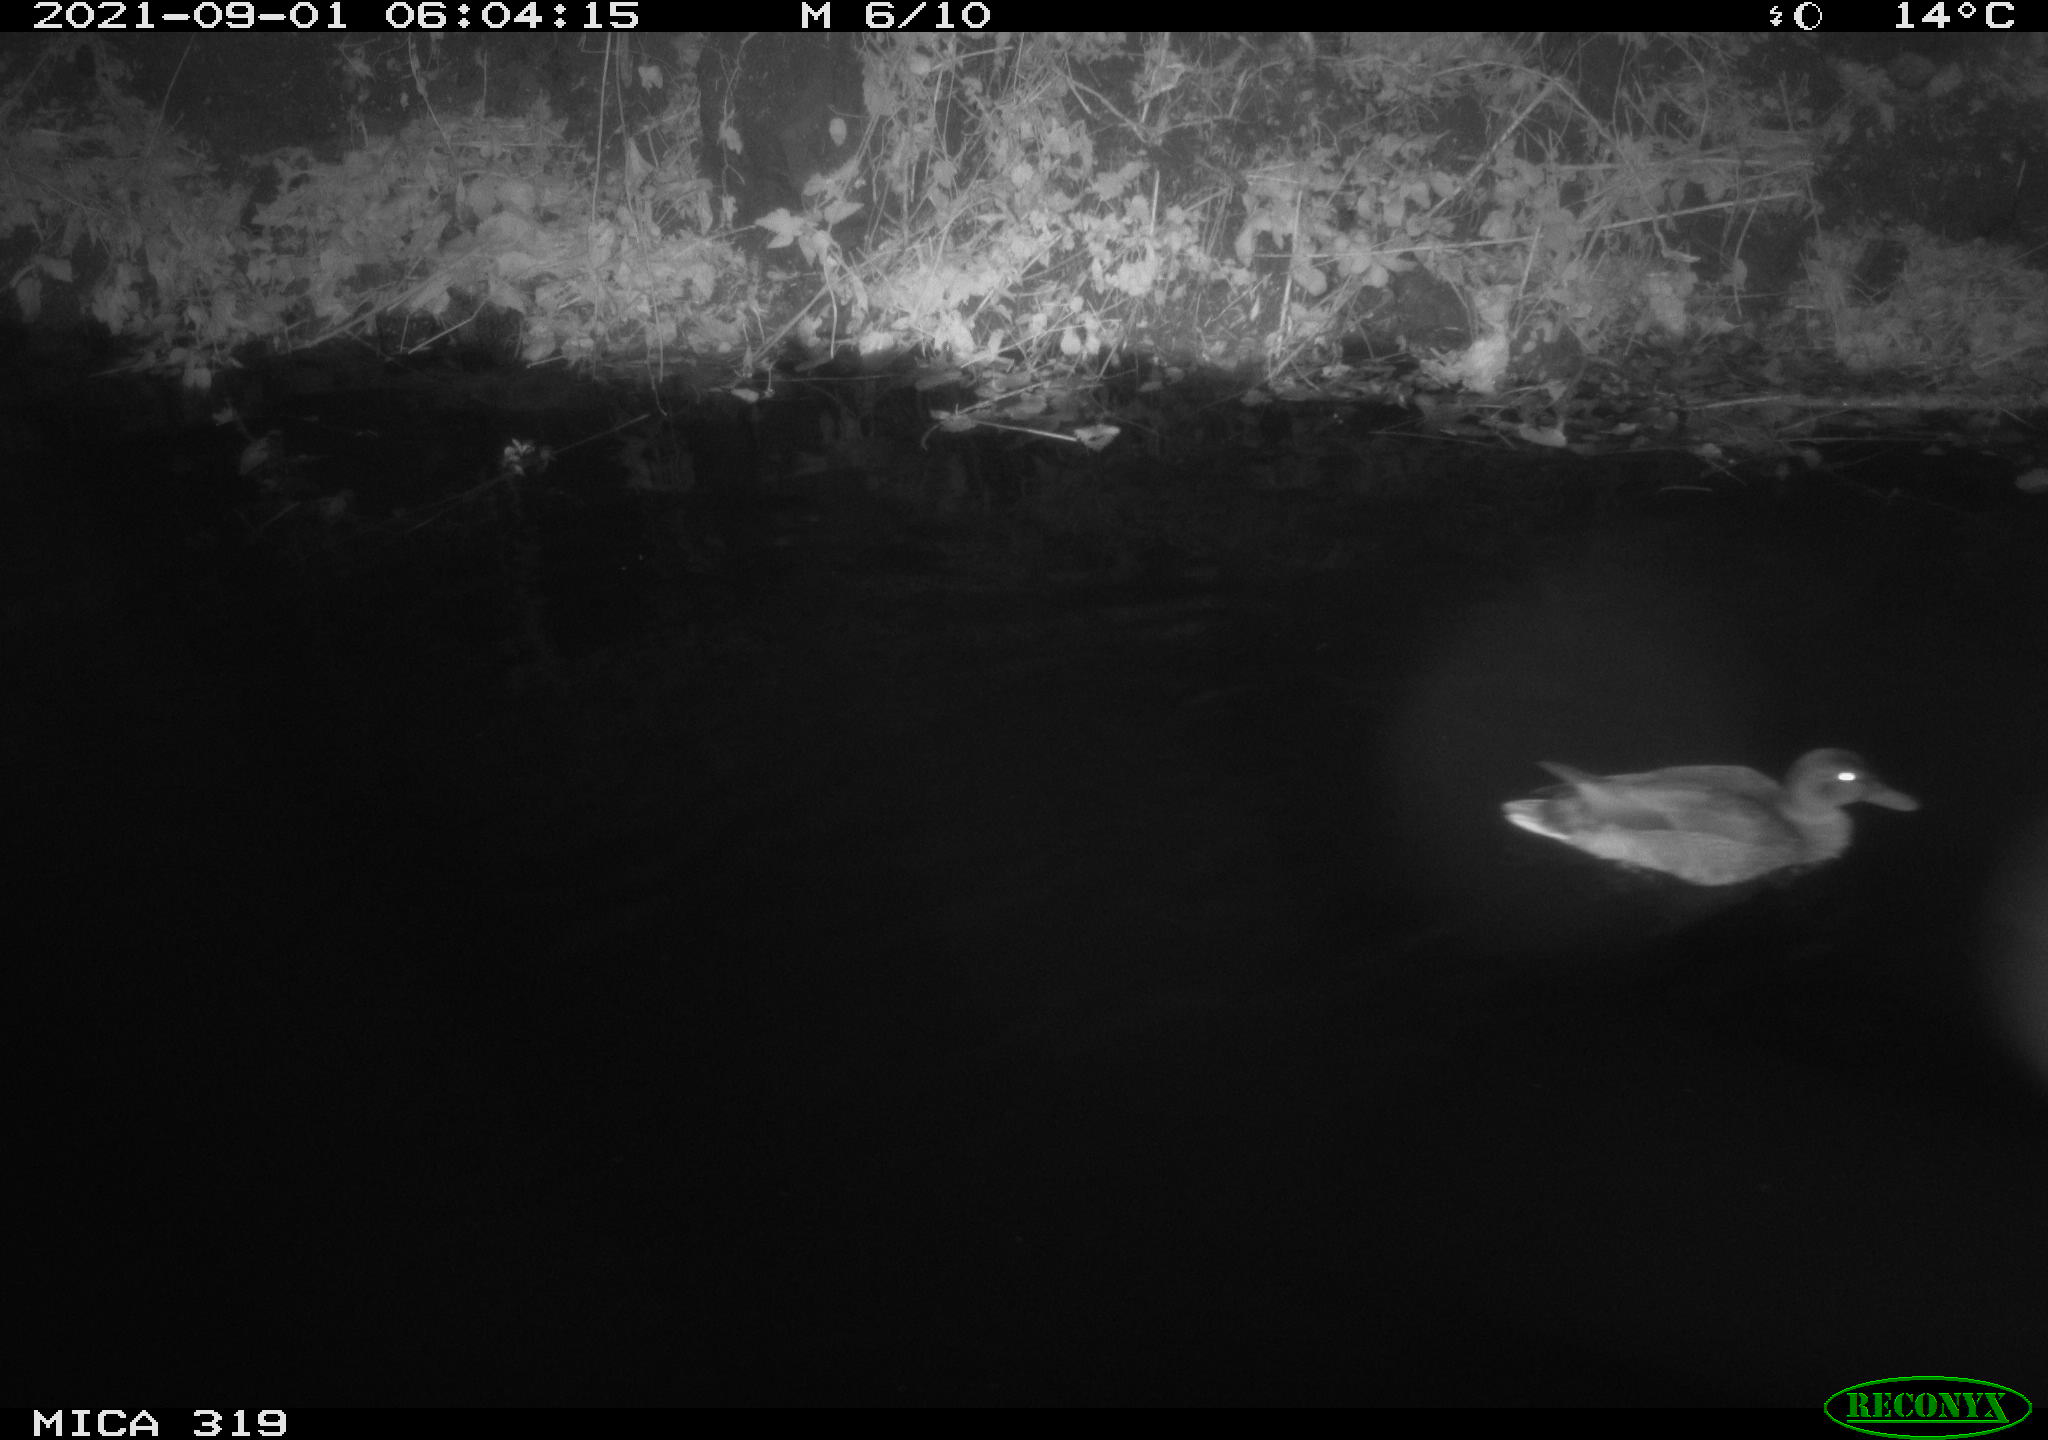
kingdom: Animalia
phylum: Chordata
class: Aves
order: Anseriformes
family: Anatidae
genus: Anas
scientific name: Anas platyrhynchos
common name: Mallard
